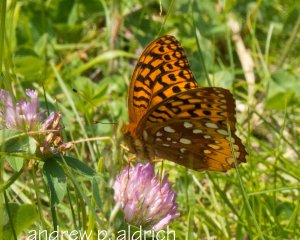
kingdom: Animalia
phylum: Arthropoda
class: Insecta
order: Lepidoptera
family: Nymphalidae
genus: Speyeria
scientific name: Speyeria cybele
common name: Great Spangled Fritillary
